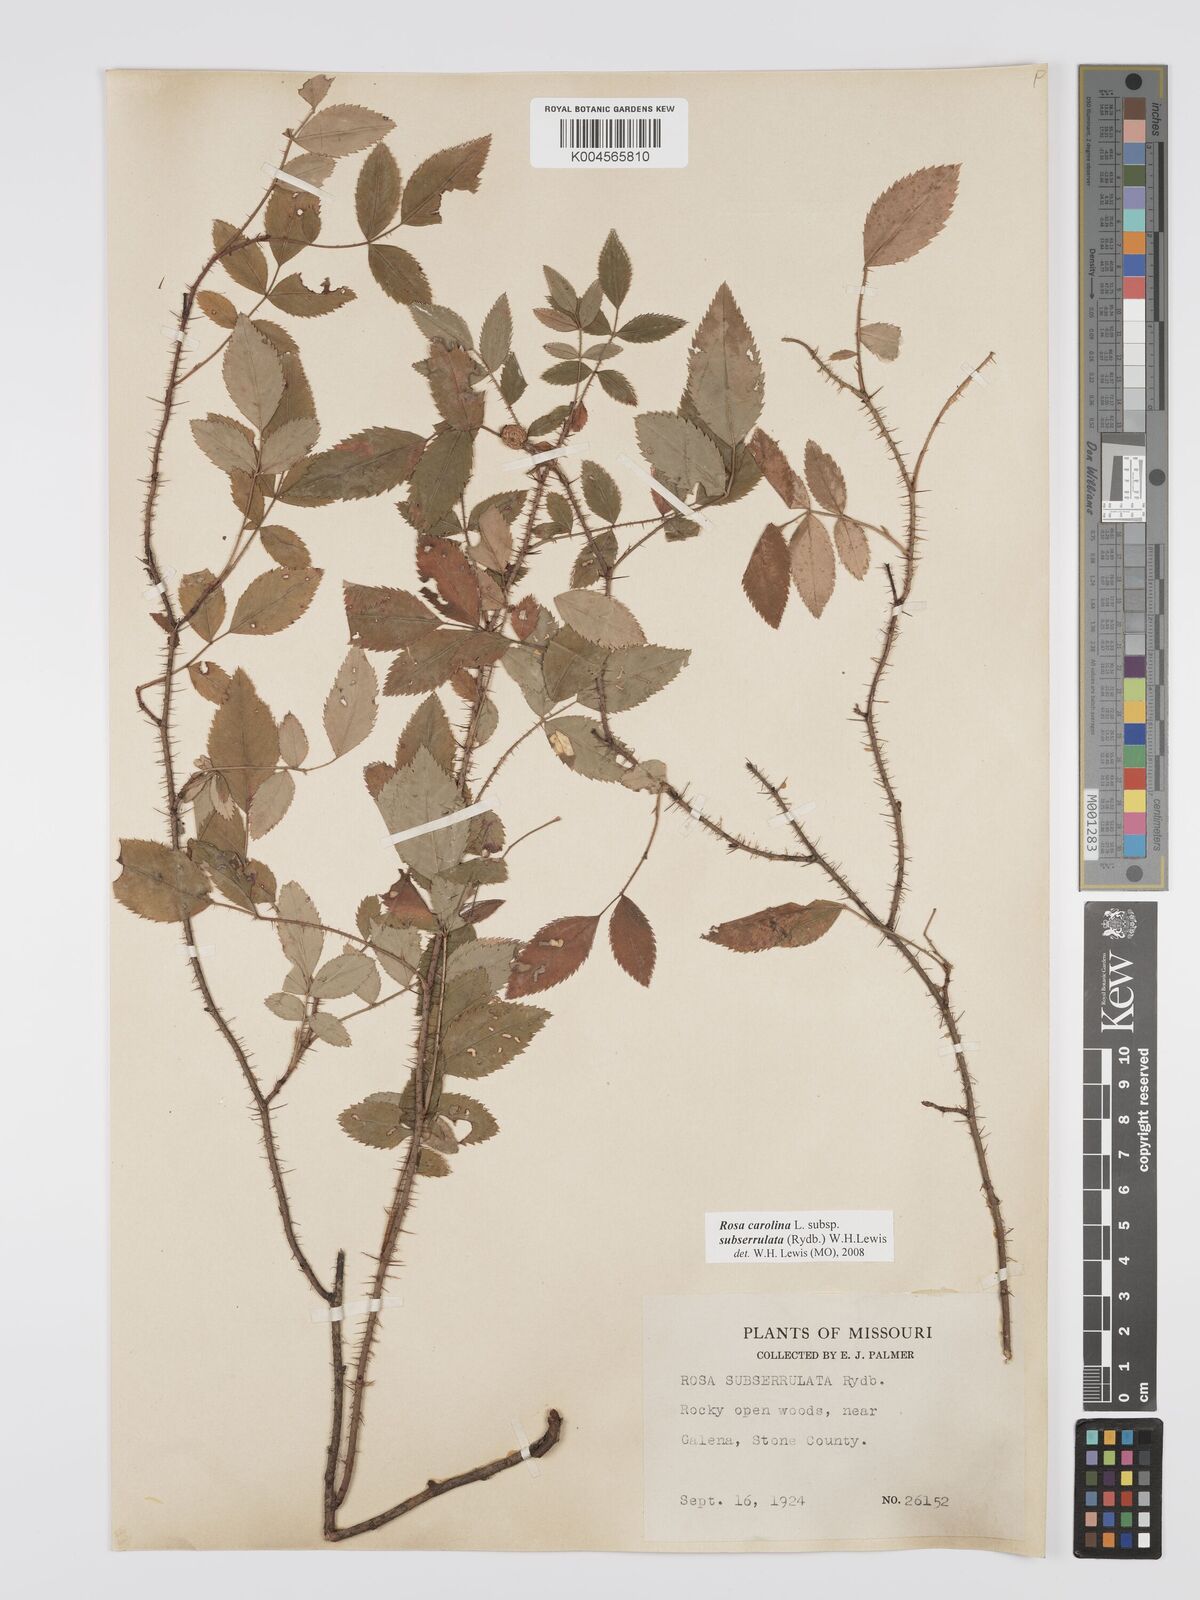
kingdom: Plantae
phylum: Tracheophyta
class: Magnoliopsida
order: Rosales
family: Rosaceae
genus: Rosa
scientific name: Rosa carolina
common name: Pasture rose
